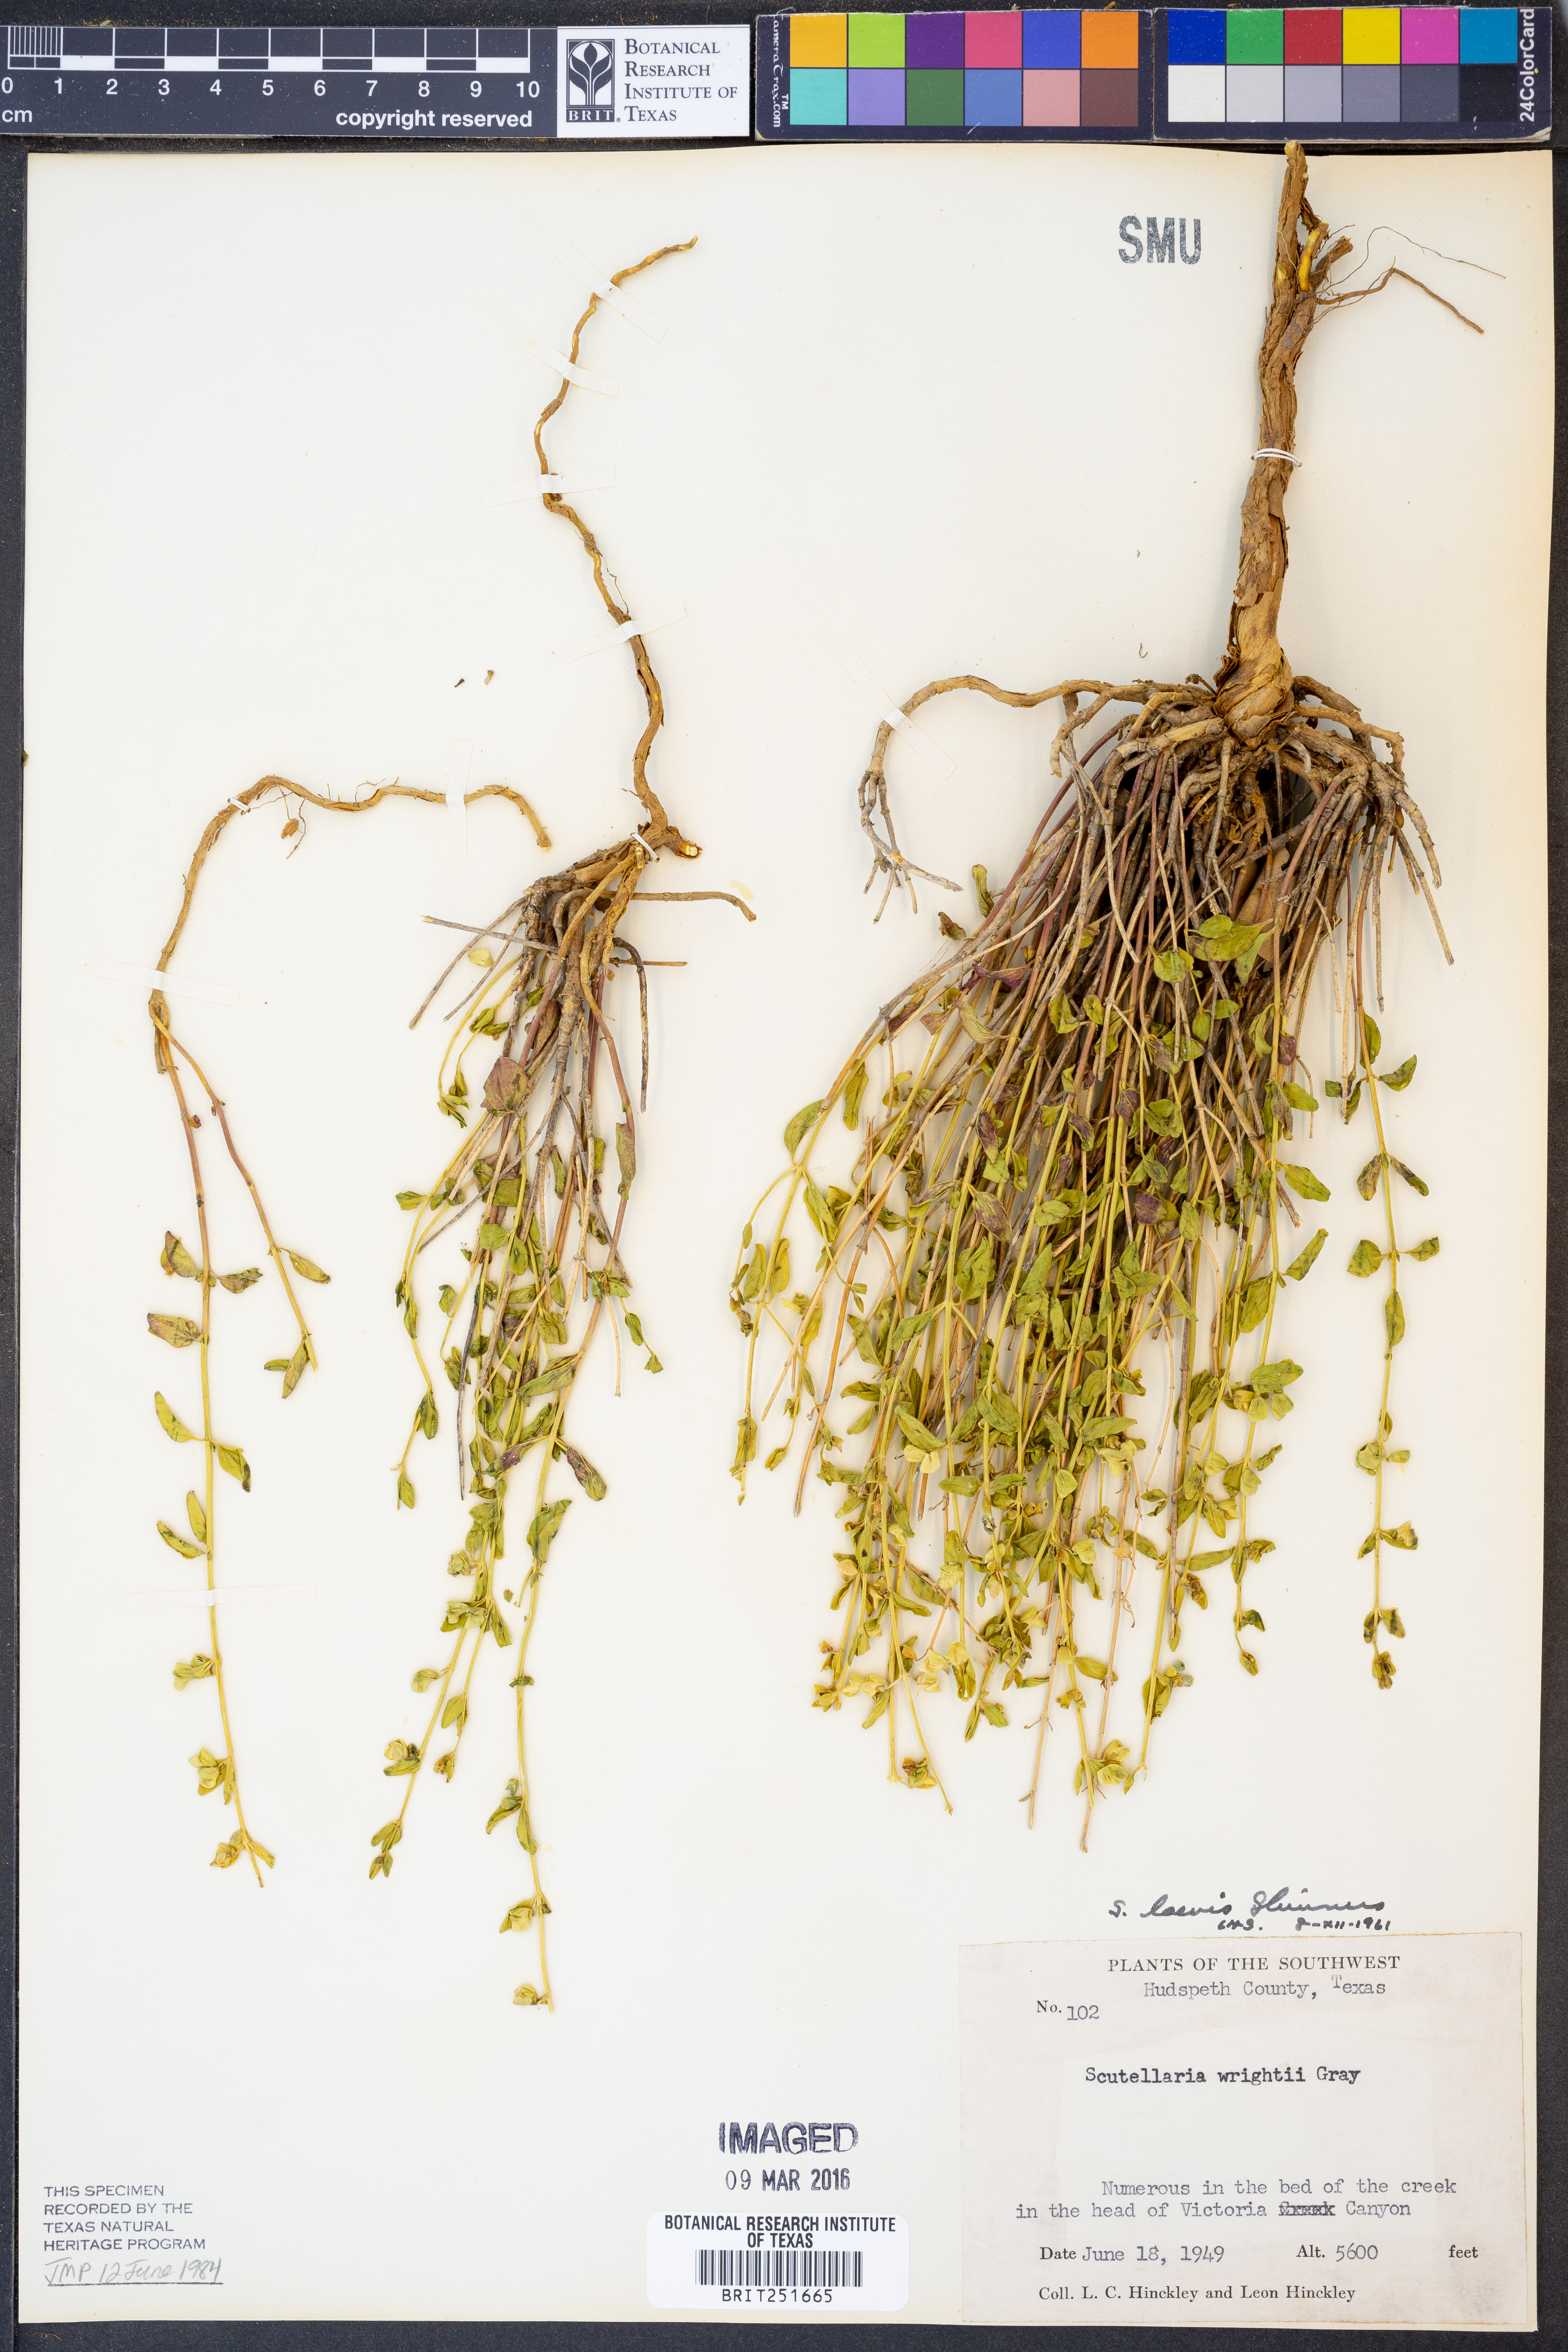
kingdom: Plantae
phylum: Tracheophyta
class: Magnoliopsida
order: Lamiales
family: Lamiaceae
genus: Scutellaria
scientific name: Scutellaria laevis
